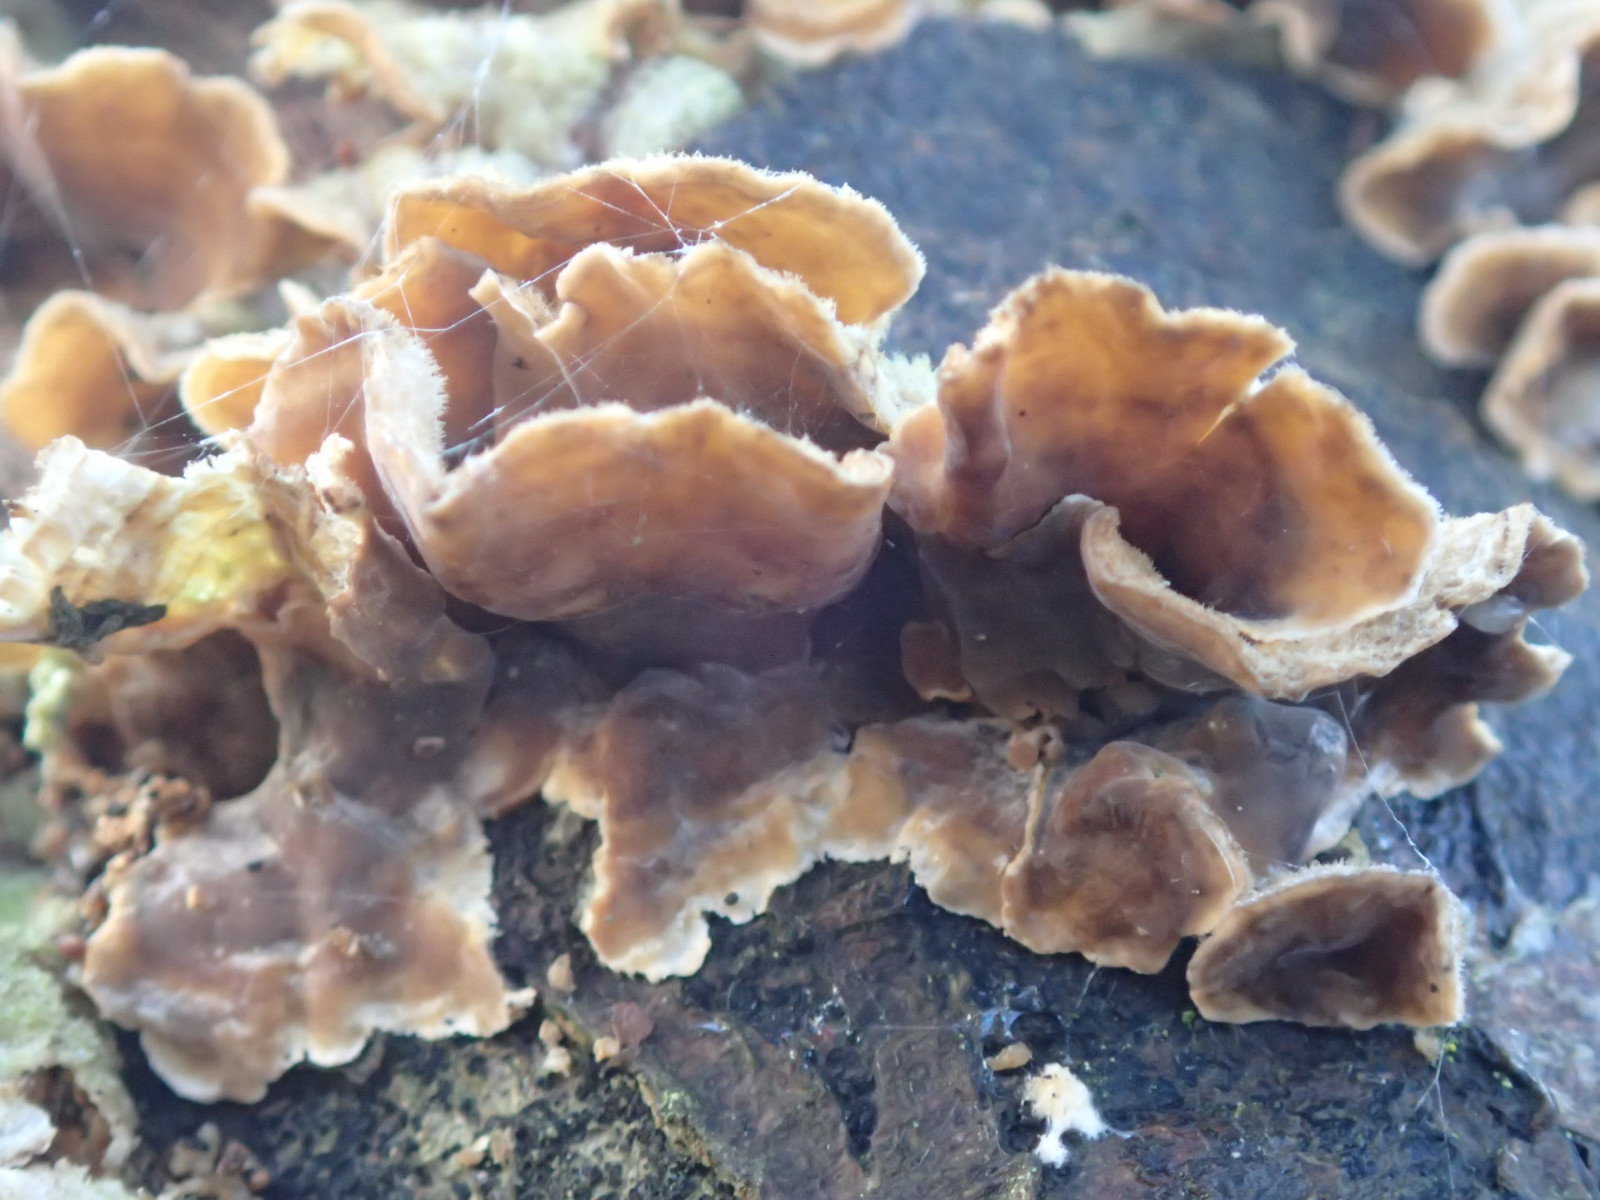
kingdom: Fungi
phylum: Basidiomycota
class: Agaricomycetes
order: Russulales
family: Stereaceae
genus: Stereum
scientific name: Stereum hirsutum
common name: håret lædersvamp
